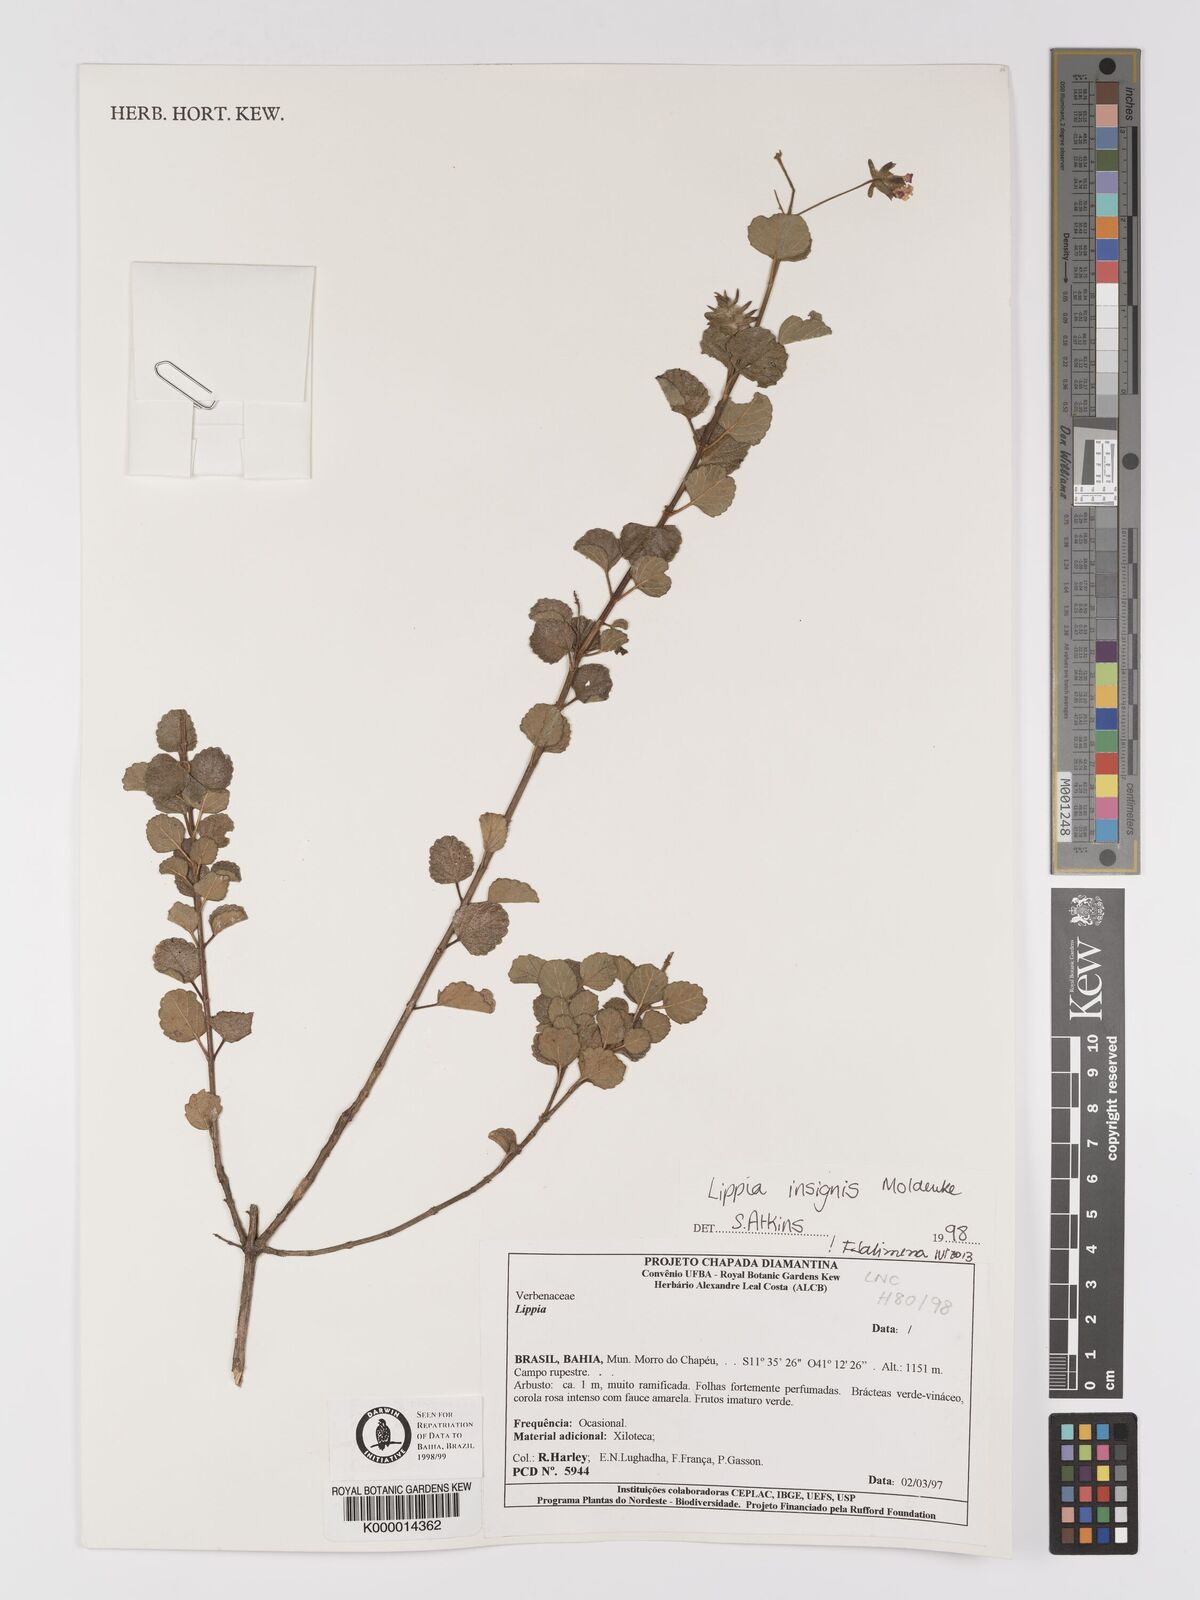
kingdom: Plantae
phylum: Tracheophyta
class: Magnoliopsida
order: Lamiales
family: Verbenaceae
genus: Lippia
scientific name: Lippia insignis
